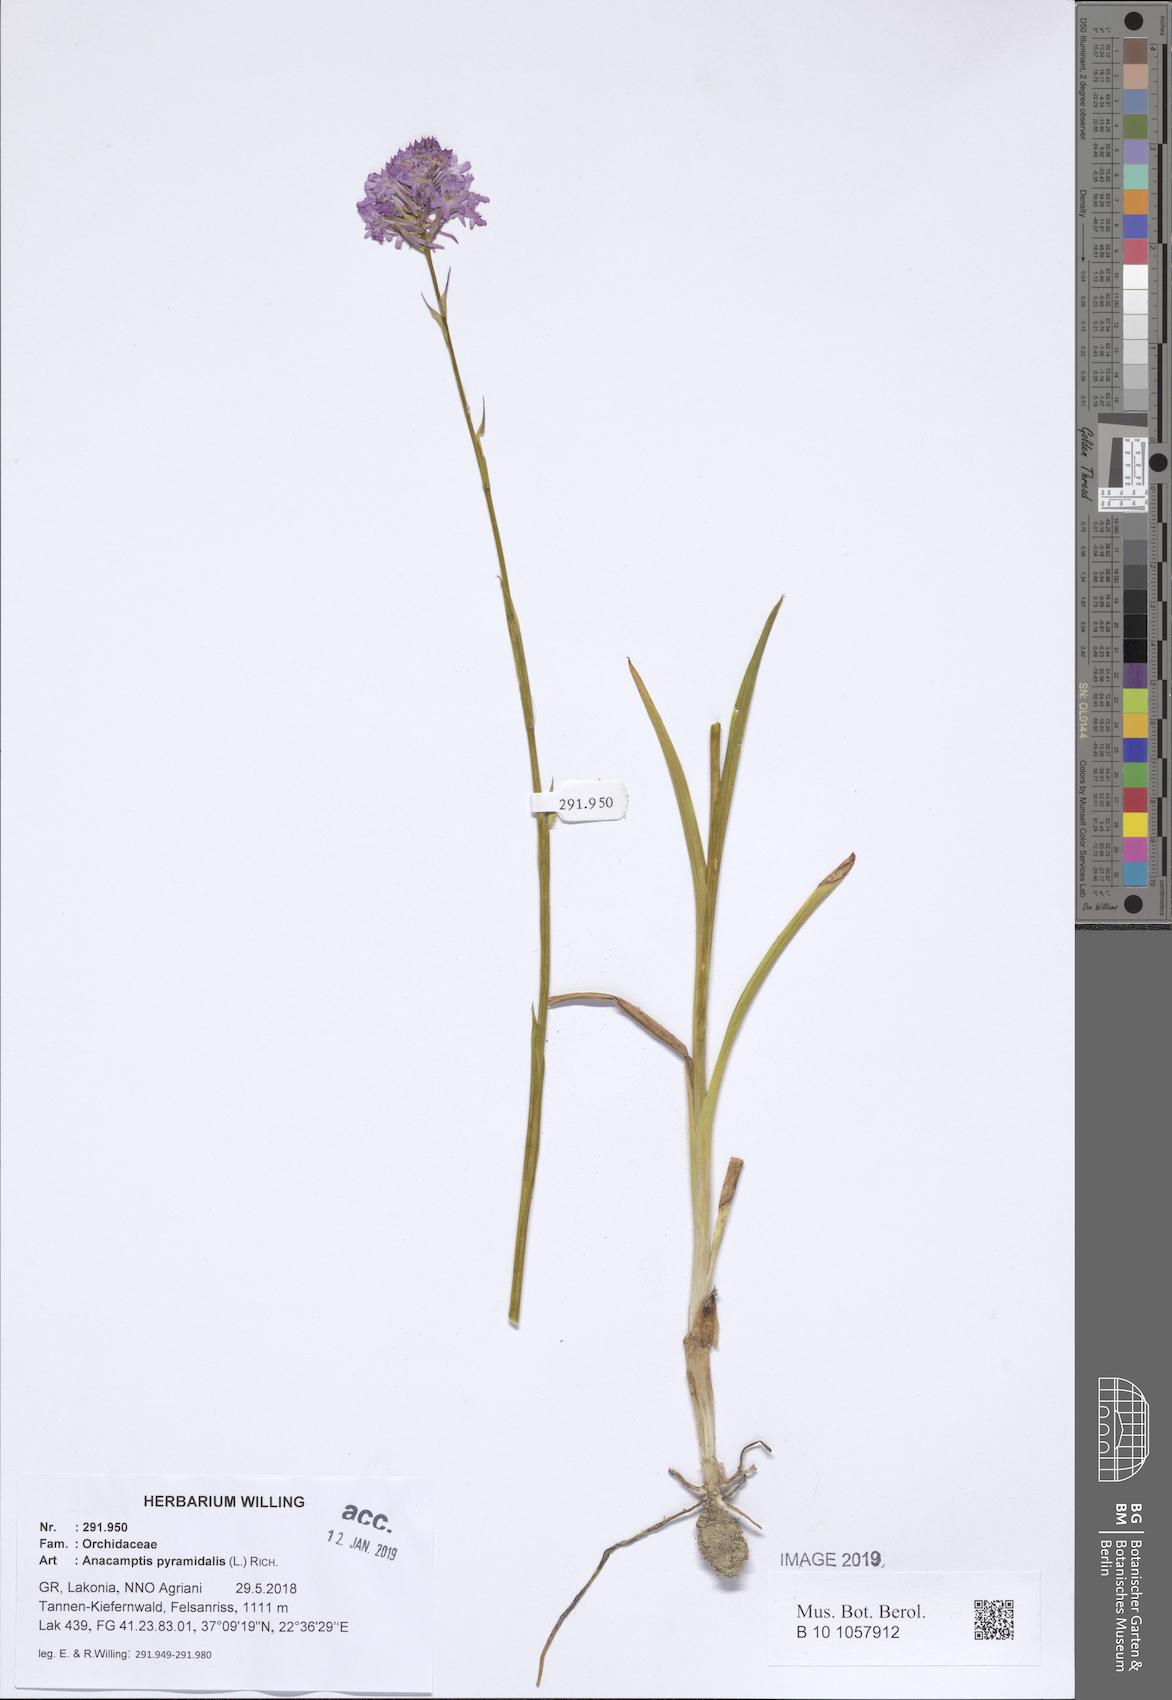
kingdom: Plantae
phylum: Tracheophyta
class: Liliopsida
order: Asparagales
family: Orchidaceae
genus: Anacamptis
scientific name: Anacamptis pyramidalis
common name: Pyramidal orchid
